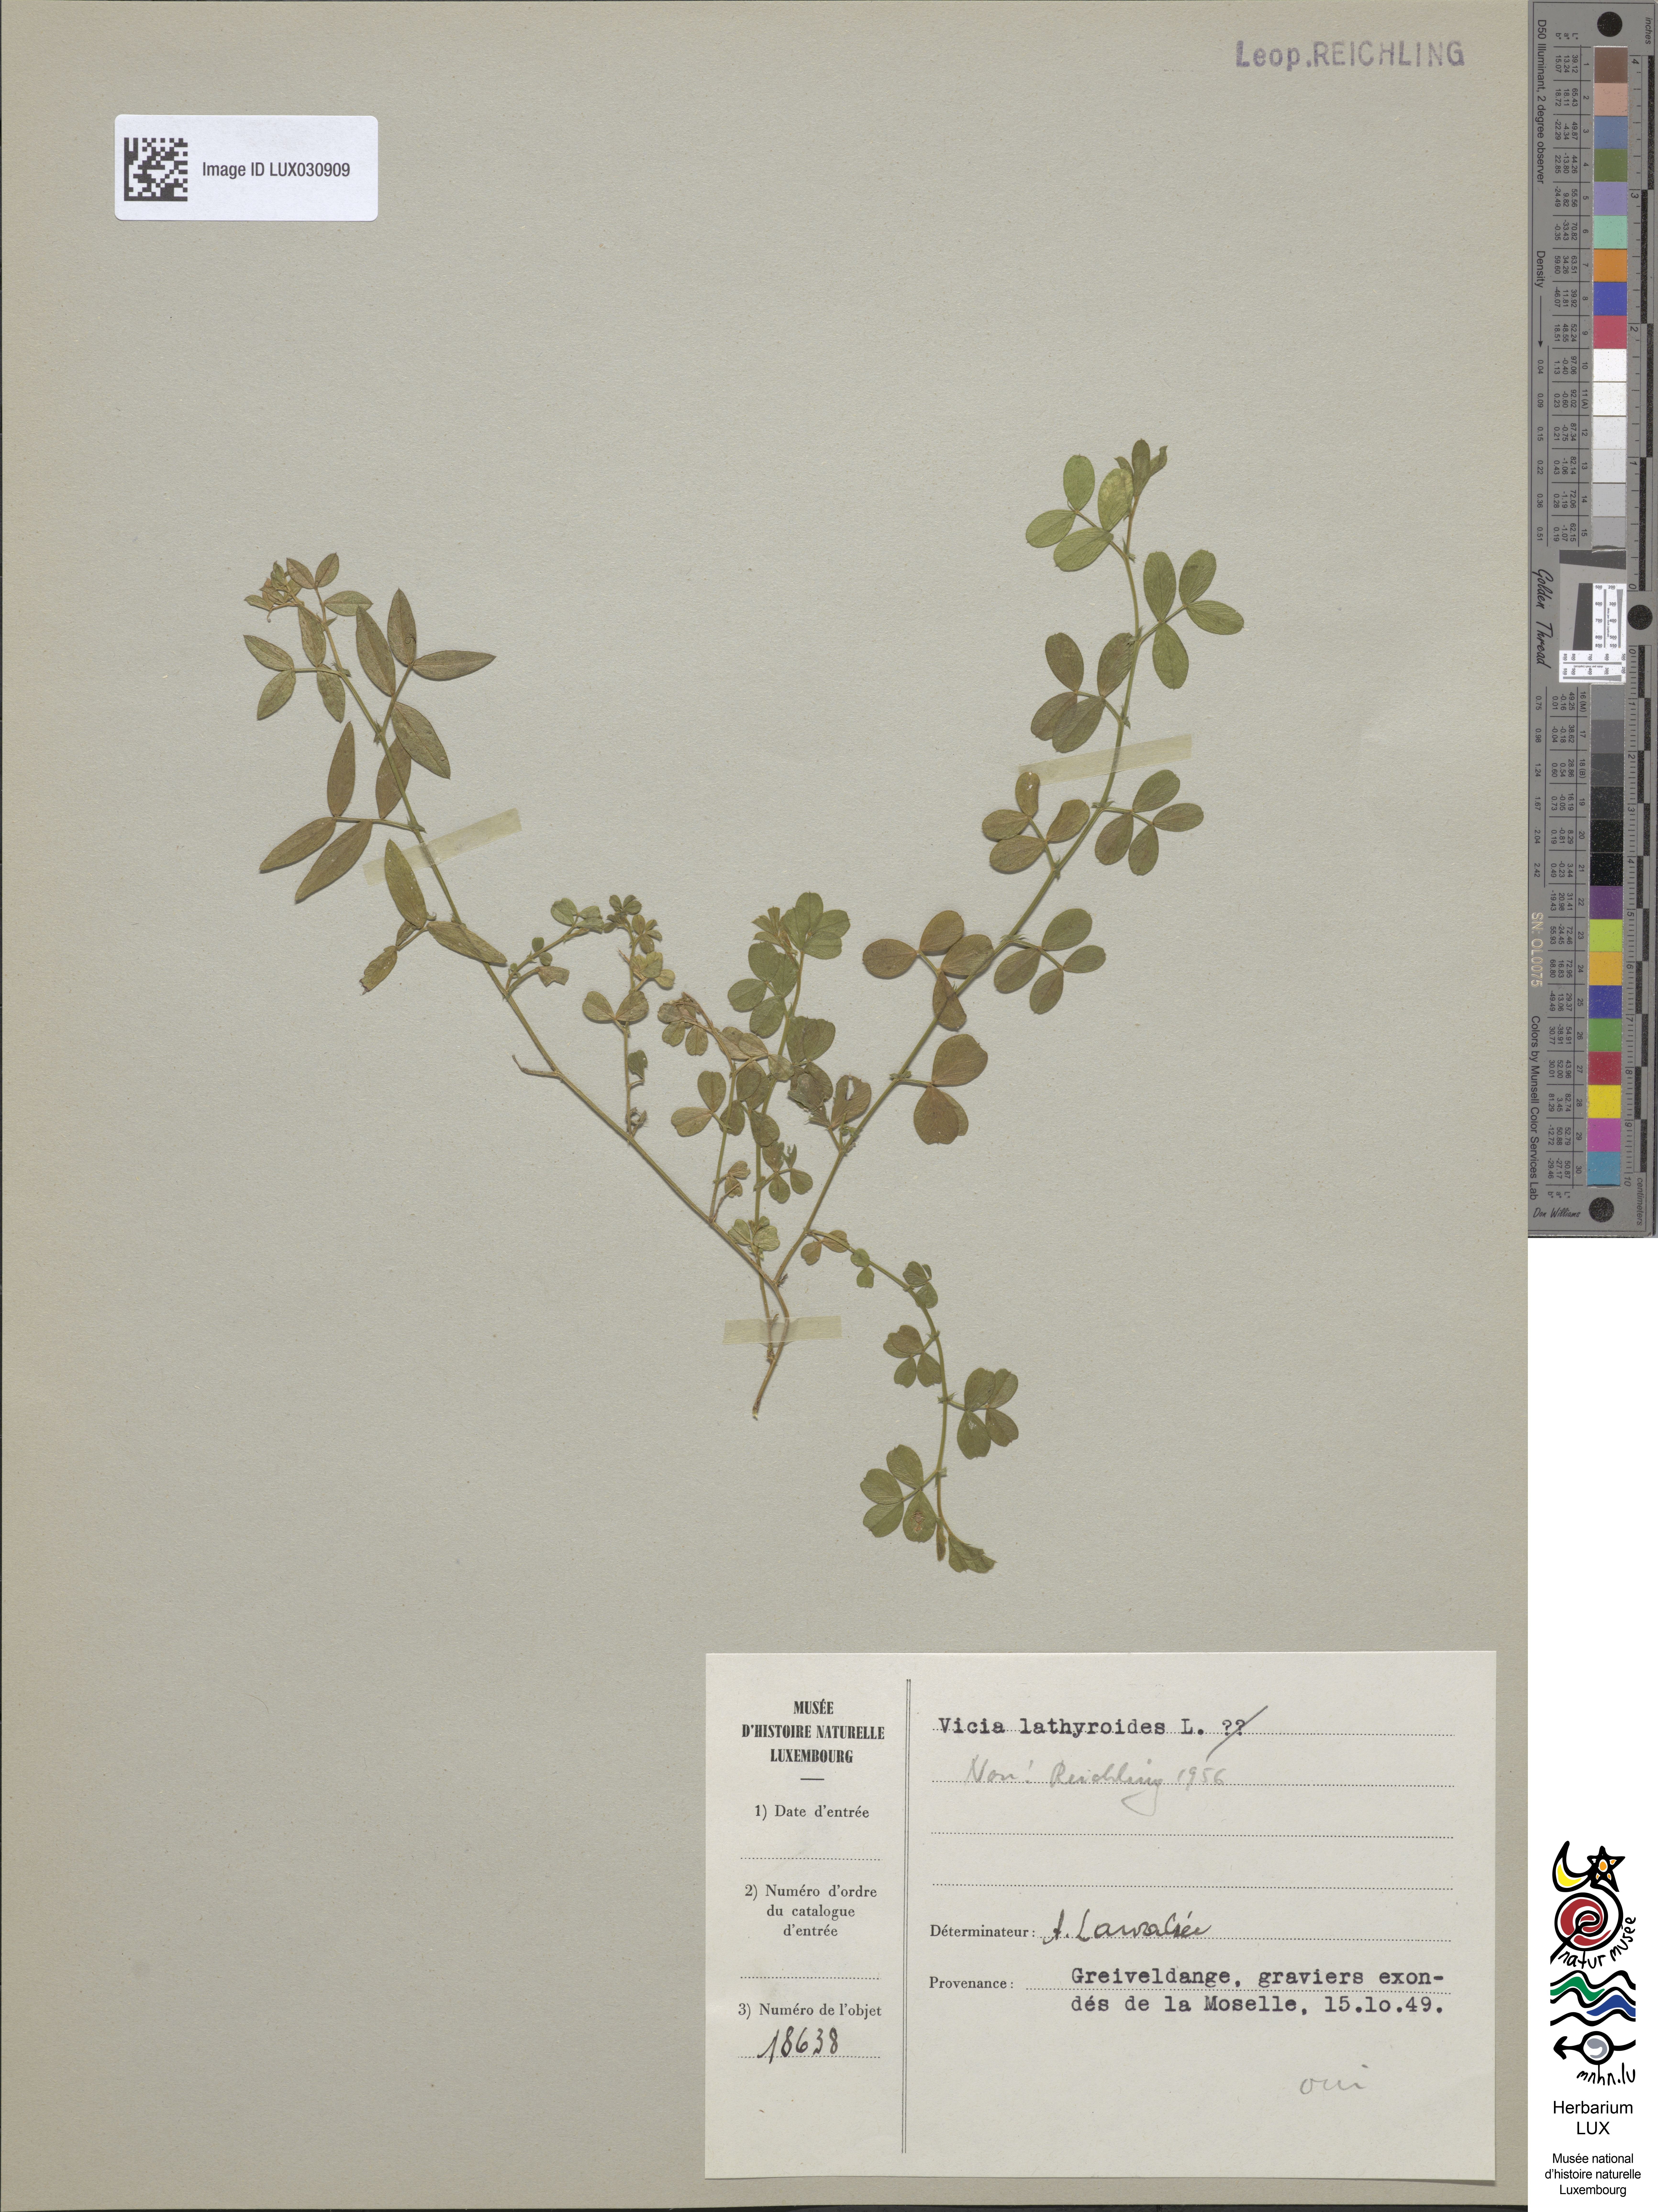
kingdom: Plantae
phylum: Tracheophyta
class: Magnoliopsida
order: Fabales
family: Fabaceae
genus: Vicia
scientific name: Vicia lathyroides
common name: Spring vetch
